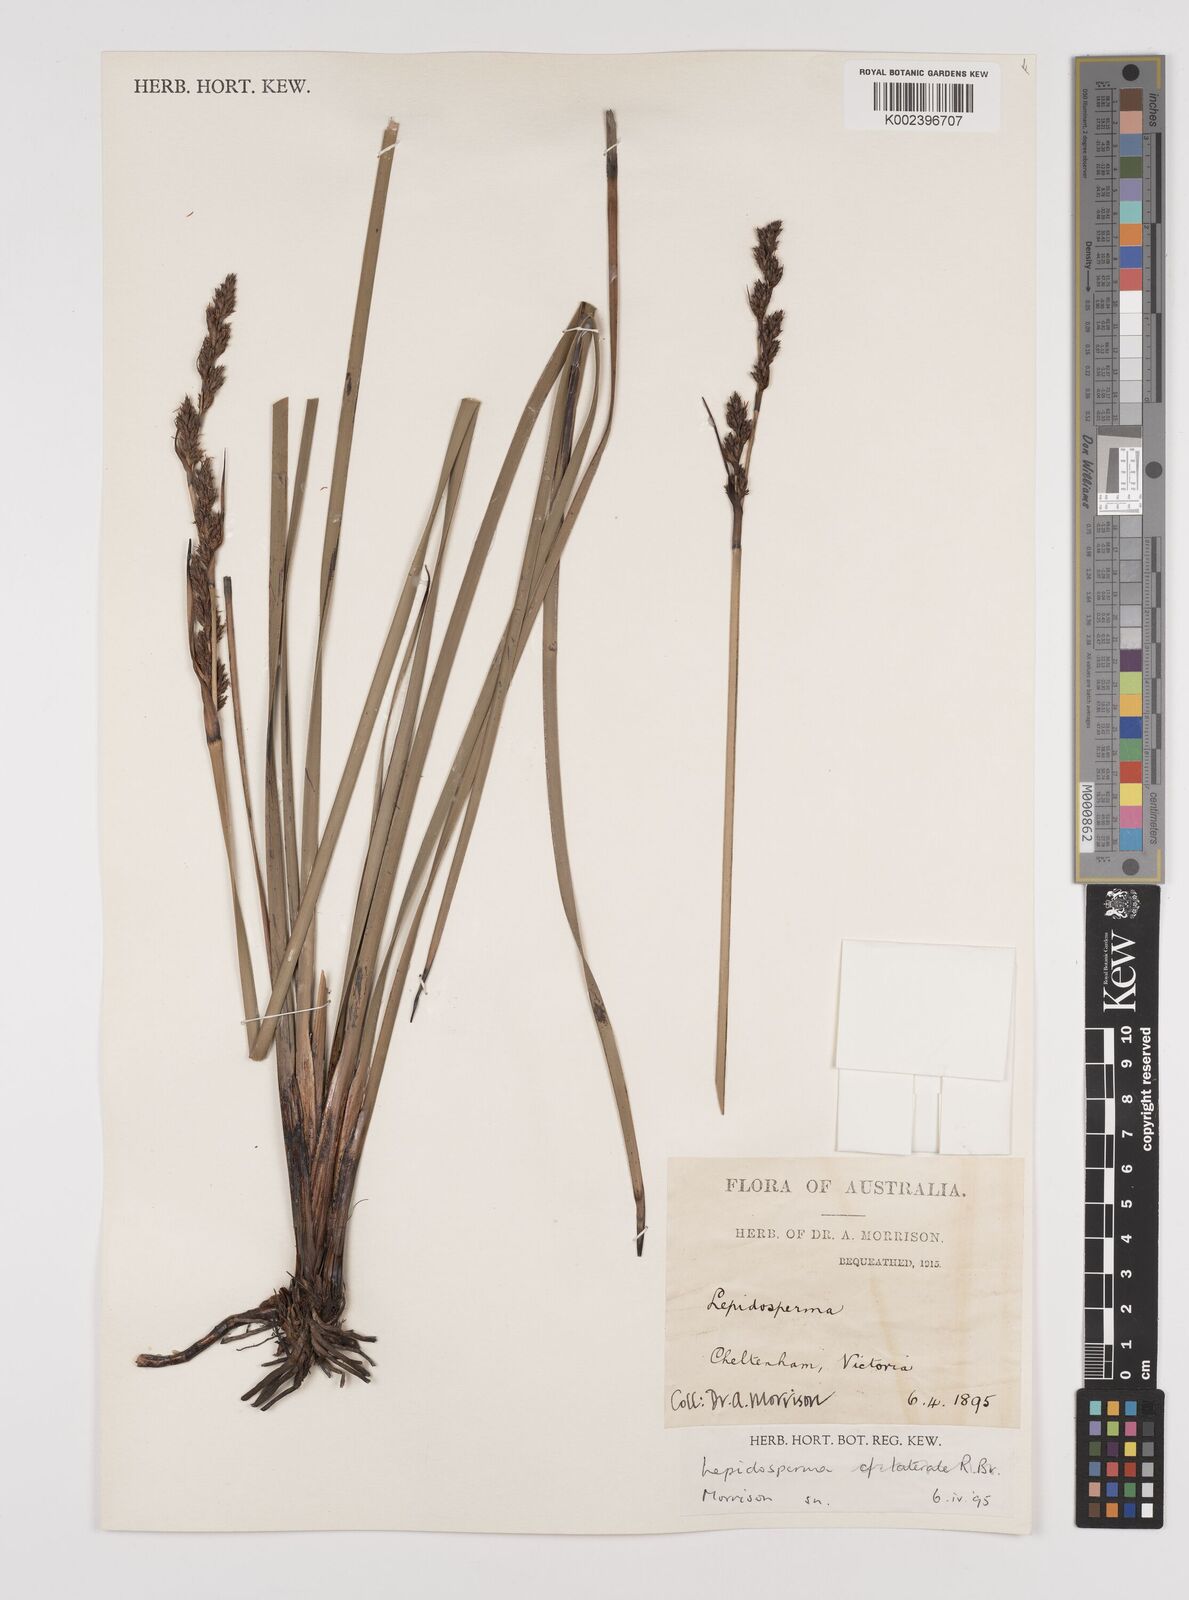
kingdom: Plantae
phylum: Tracheophyta
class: Liliopsida
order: Poales
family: Cyperaceae
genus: Lepidosperma
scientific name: Lepidosperma longitudinale
